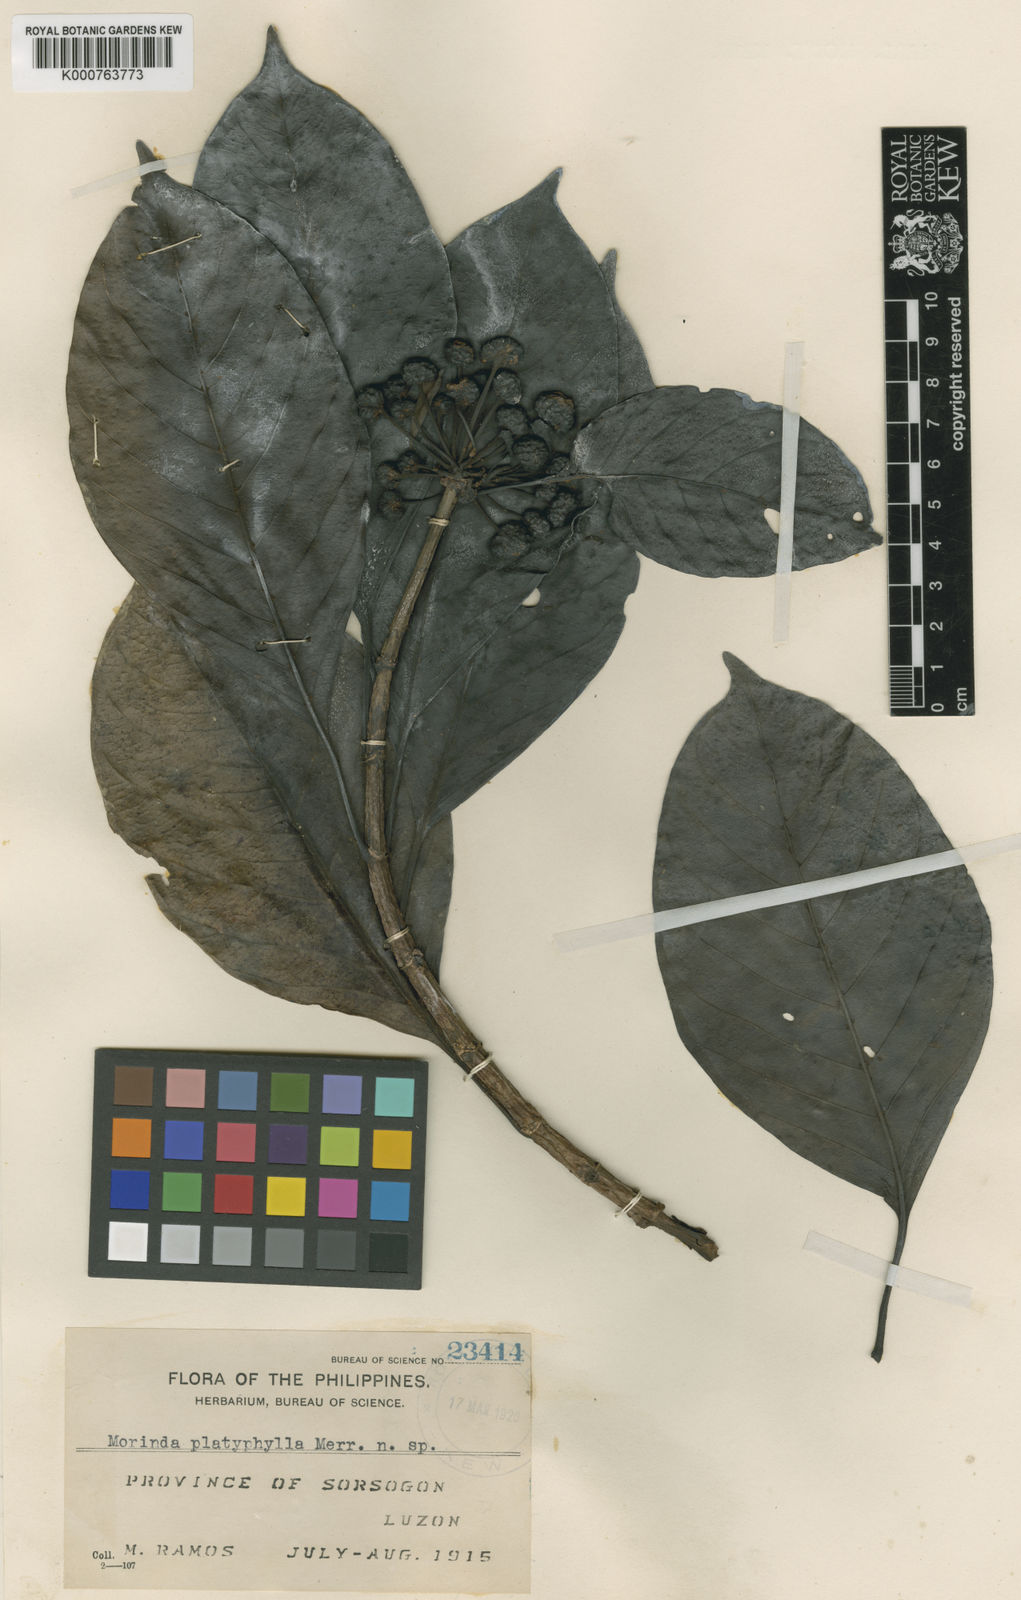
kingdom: Plantae
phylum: Tracheophyta
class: Magnoliopsida
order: Gentianales
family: Rubiaceae
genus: Gynochthodes
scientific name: Gynochthodes platyphylla
